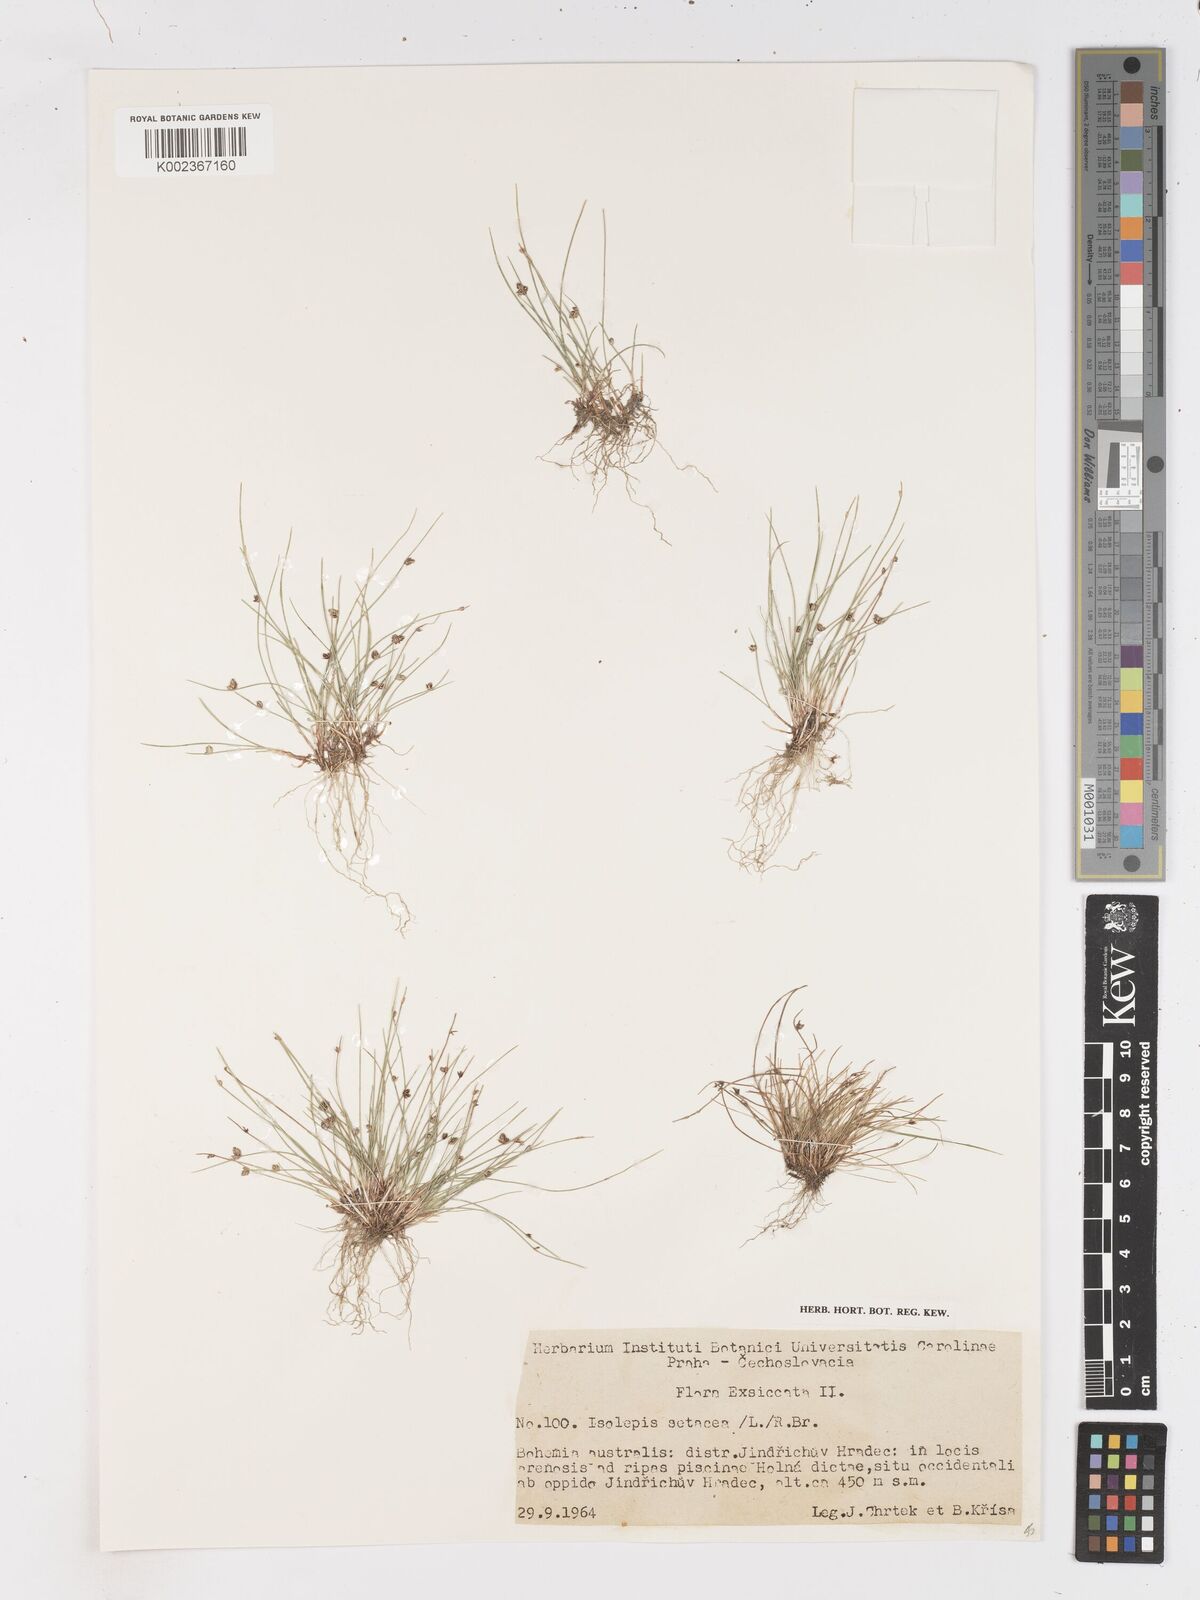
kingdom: Plantae
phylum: Tracheophyta
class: Liliopsida
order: Poales
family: Cyperaceae
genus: Isolepis
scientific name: Isolepis setacea
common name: Bristle club-rush
